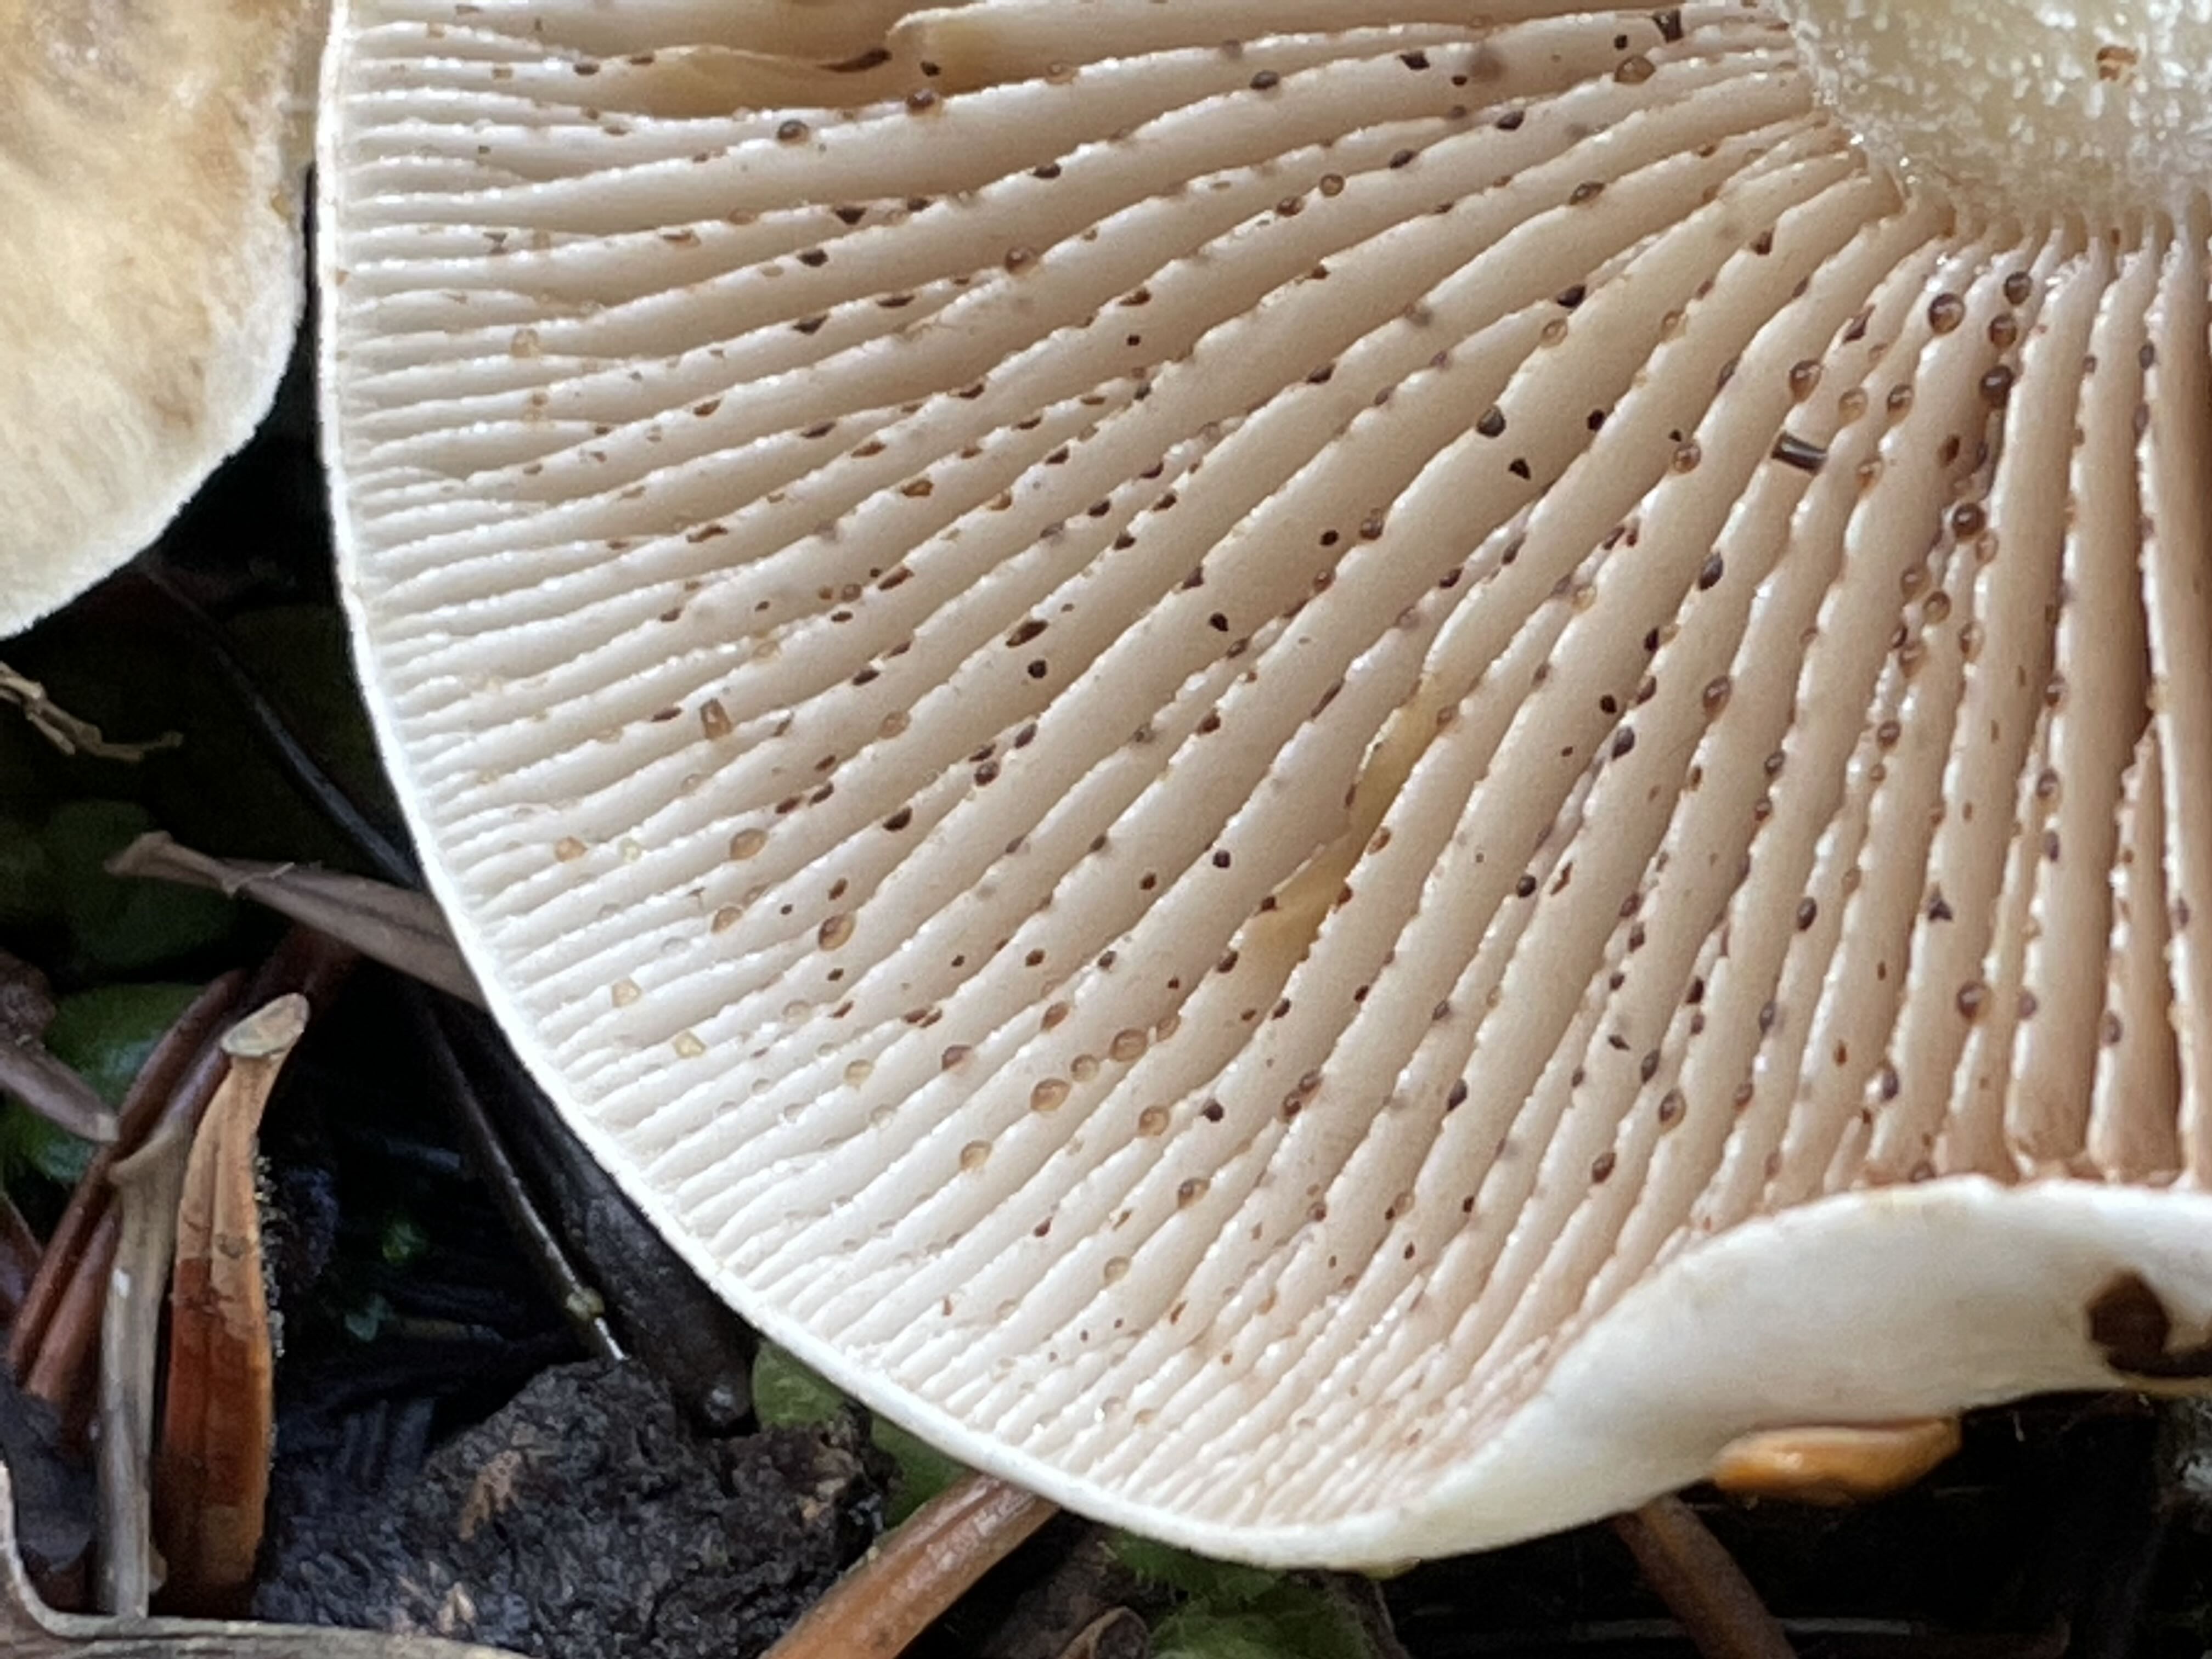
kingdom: Fungi
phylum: Basidiomycota
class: Agaricomycetes
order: Agaricales
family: Hymenogastraceae
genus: Hebeloma
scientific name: Hebeloma
